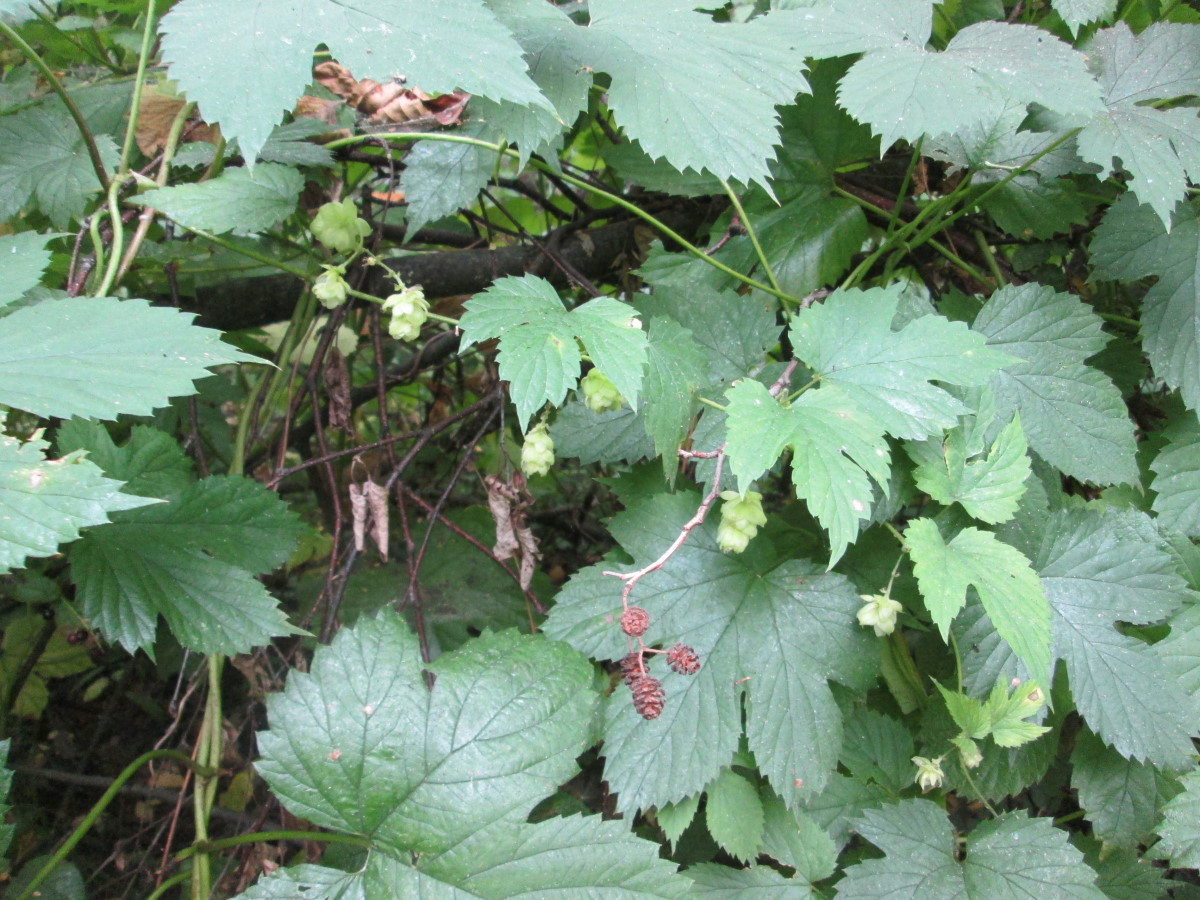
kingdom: Plantae
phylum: Tracheophyta
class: Magnoliopsida
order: Rosales
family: Cannabaceae
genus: Humulus
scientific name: Humulus lupulus
